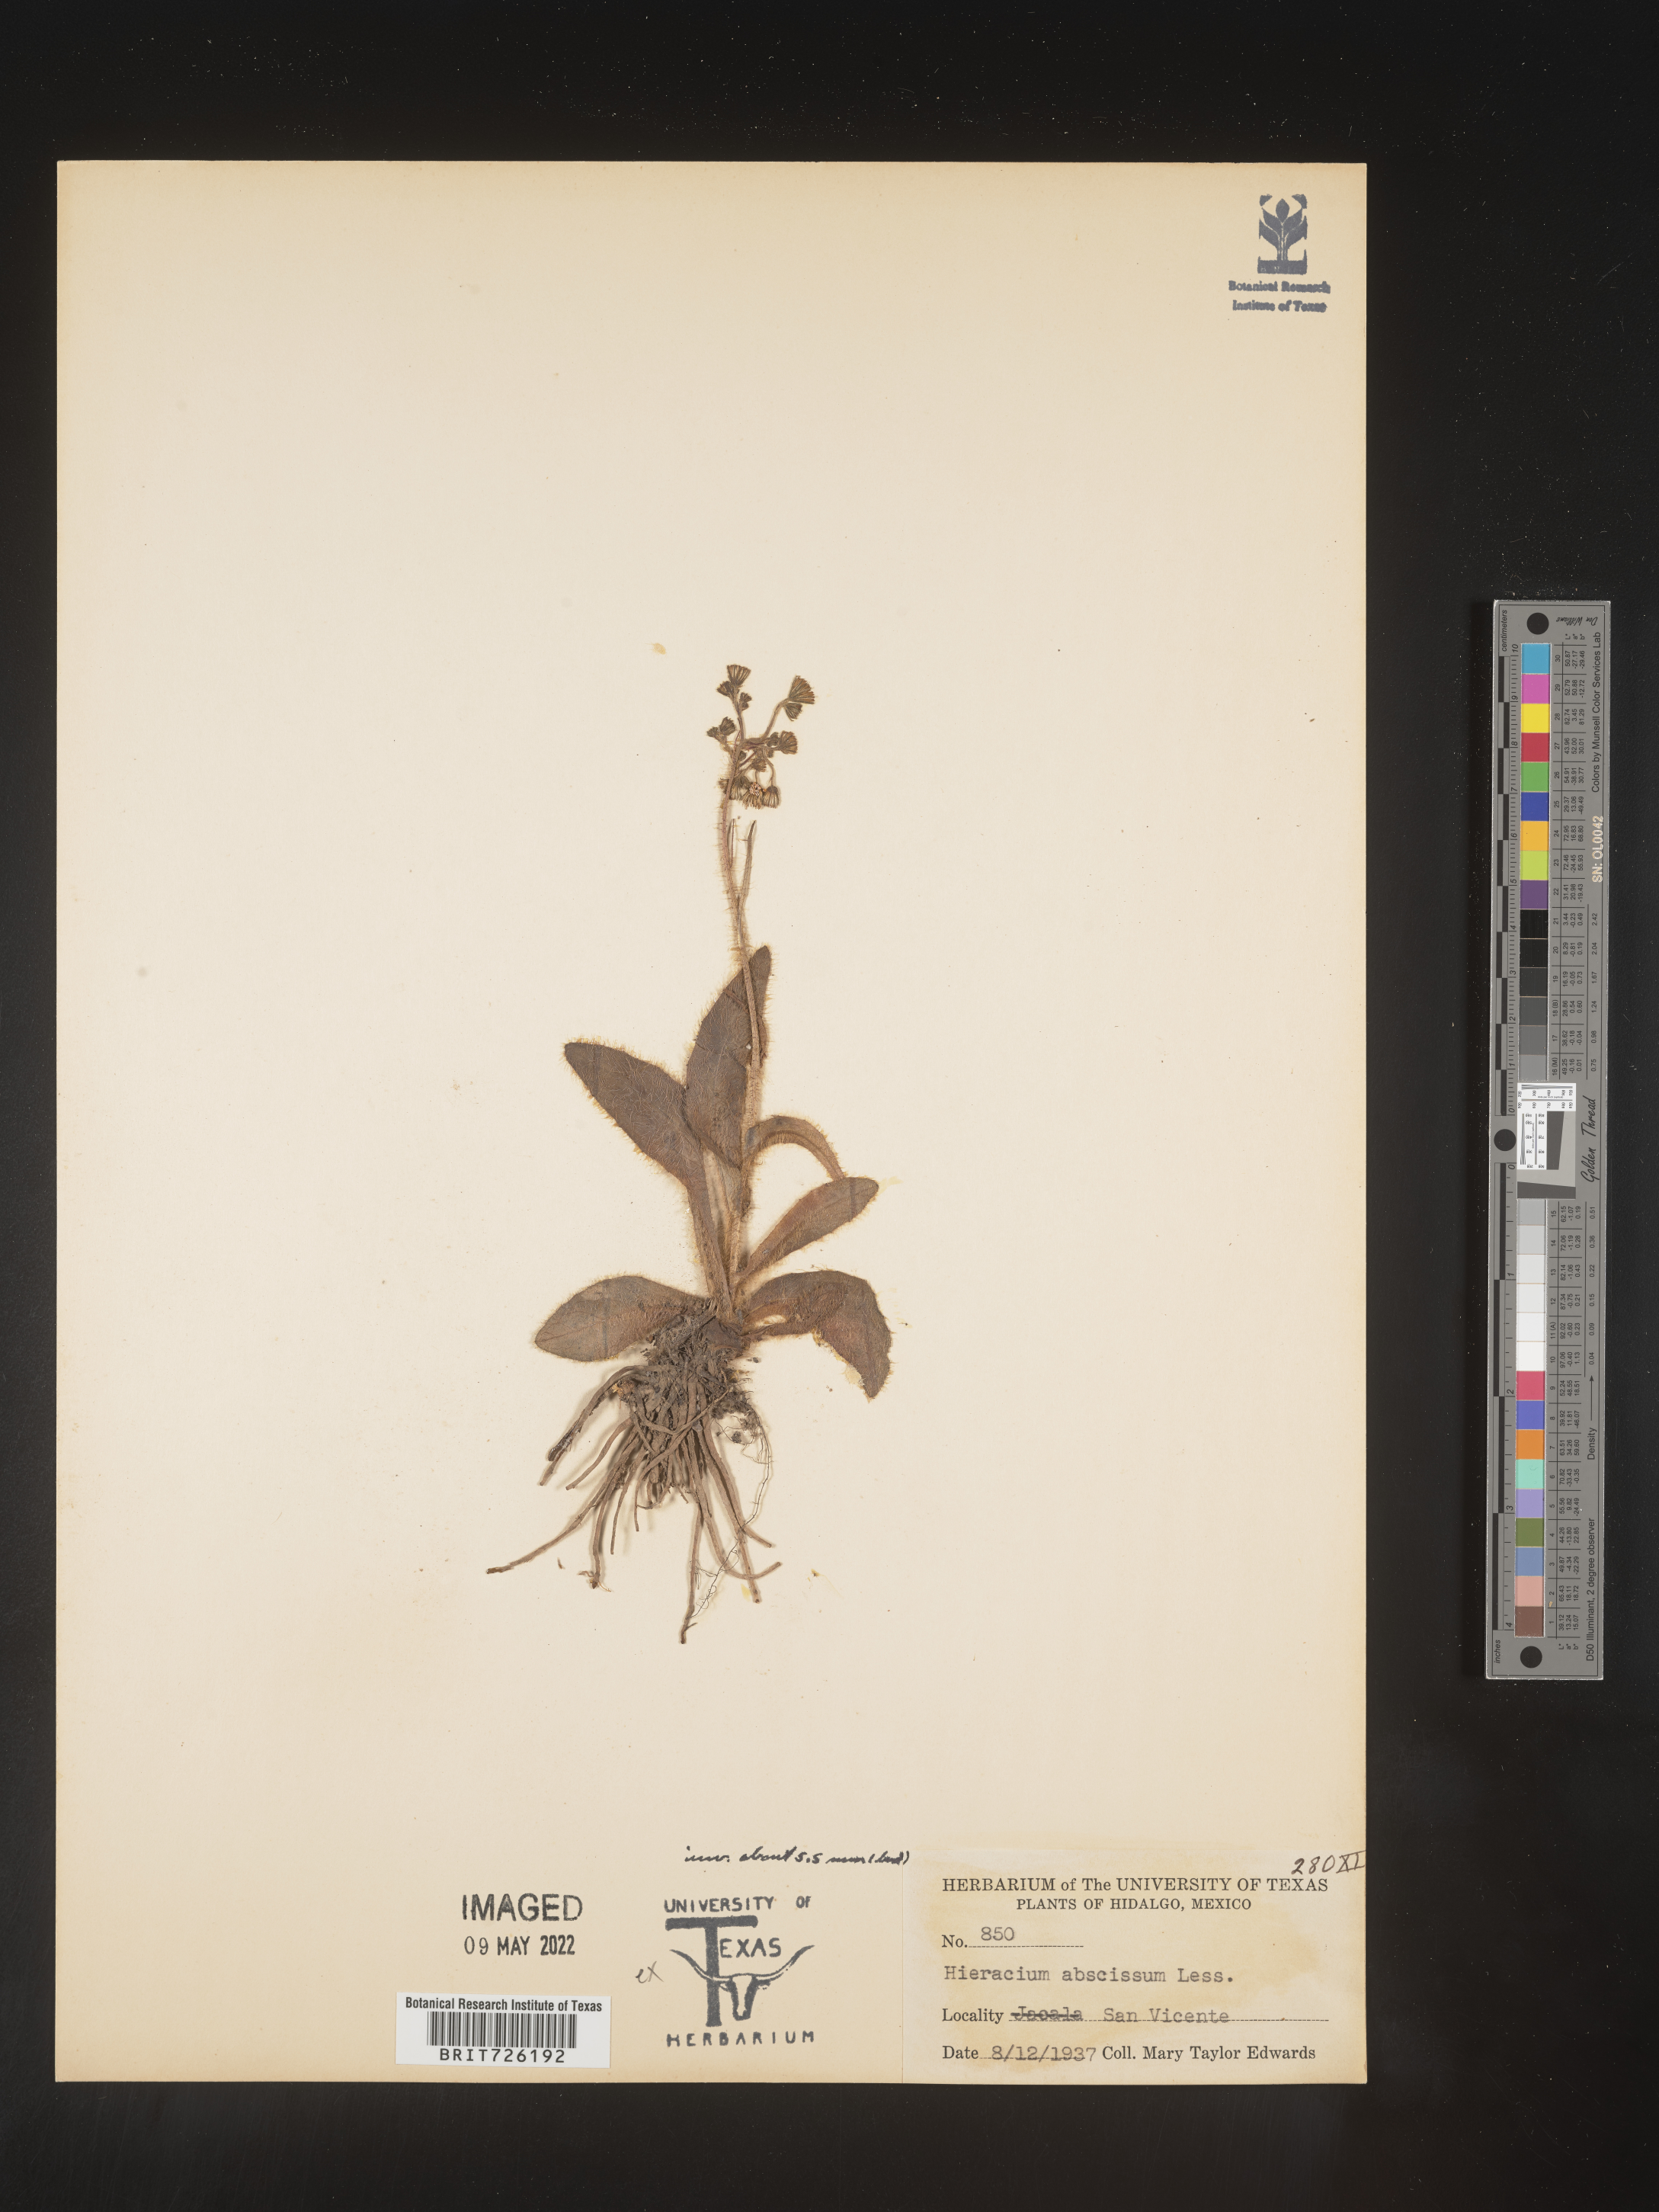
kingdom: Plantae
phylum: Tracheophyta
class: Magnoliopsida
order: Asterales
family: Asteraceae
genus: Hieracium
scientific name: Hieracium
